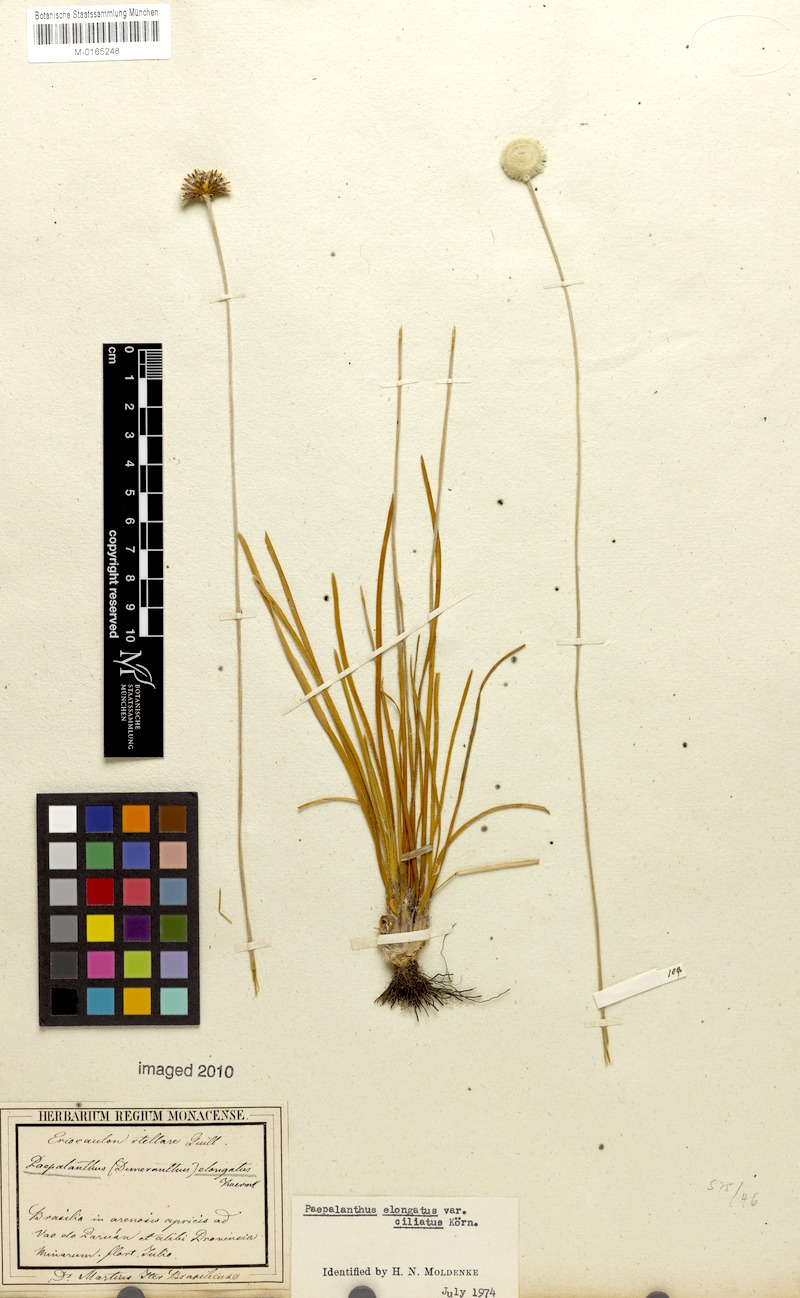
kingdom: Plantae
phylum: Tracheophyta
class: Liliopsida
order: Poales
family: Eriocaulaceae
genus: Paepalanthus
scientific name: Paepalanthus elongatus
